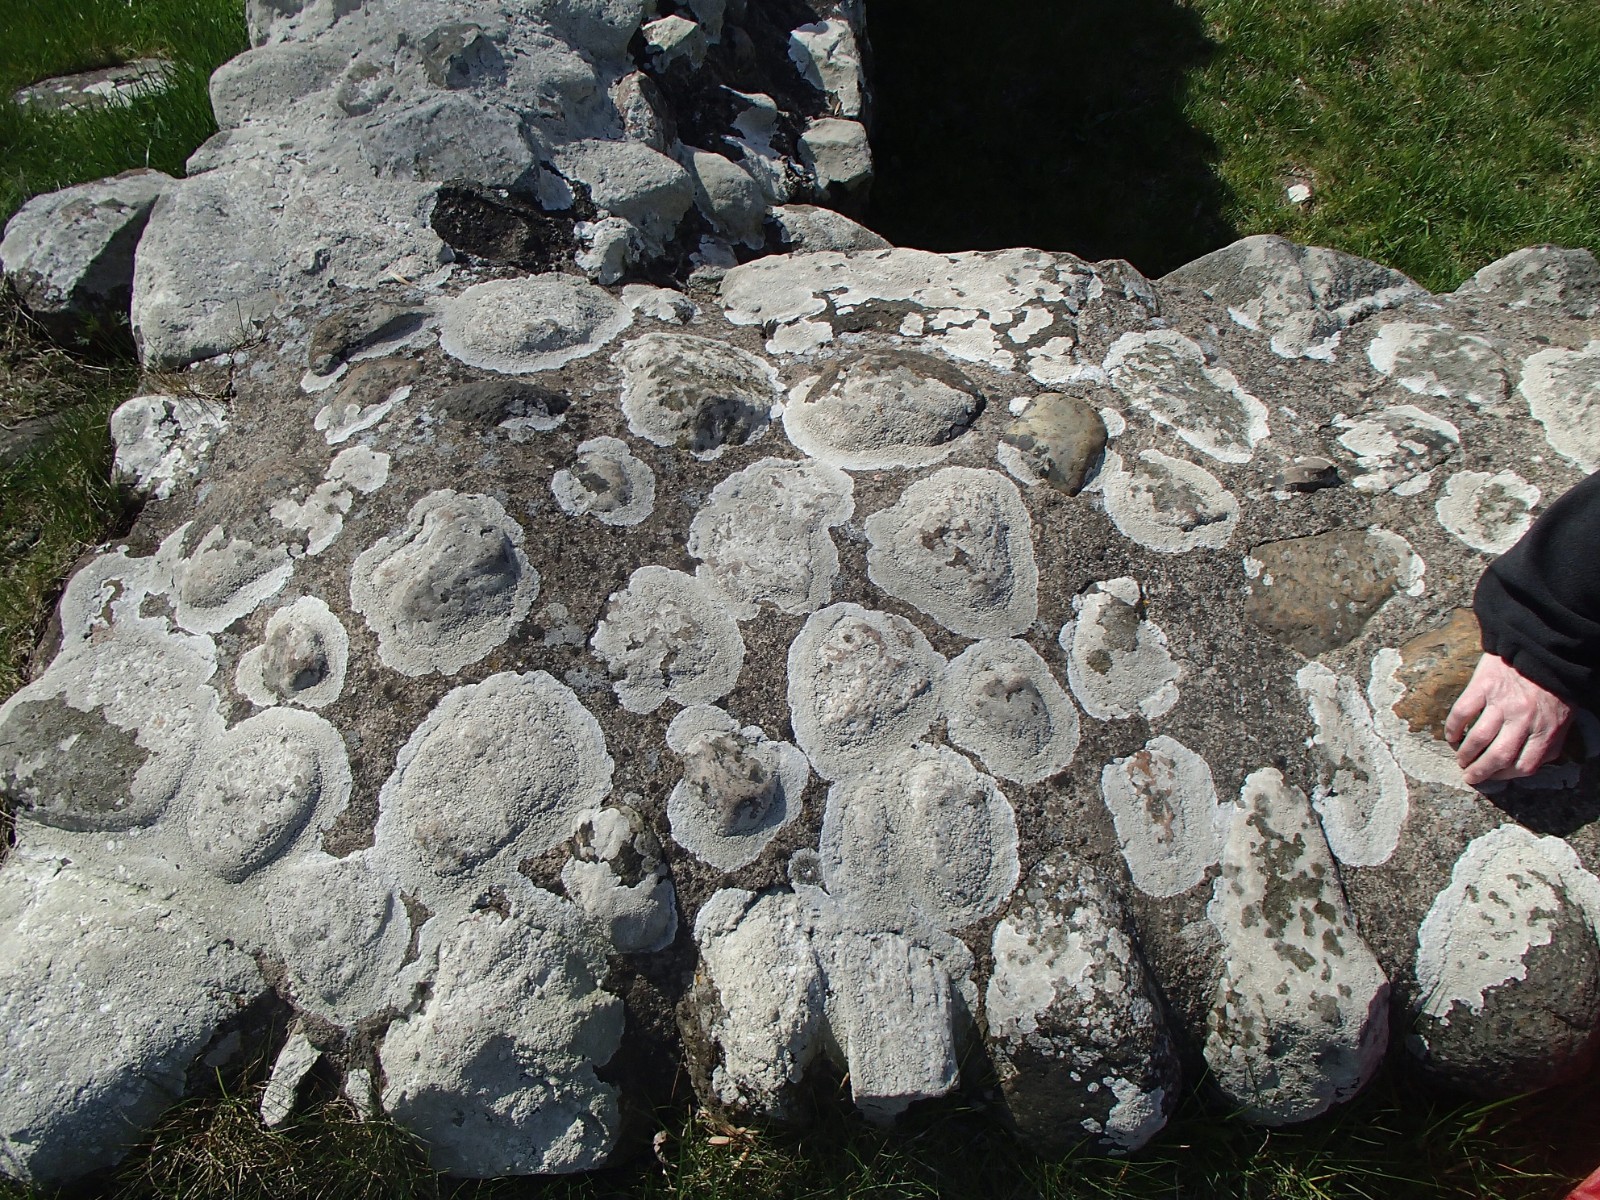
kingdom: Fungi
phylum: Ascomycota
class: Lecanoromycetes
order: Pertusariales
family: Ochrolechiaceae
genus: Ochrolechia
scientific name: Ochrolechia parella
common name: almindelig blegskivelav
